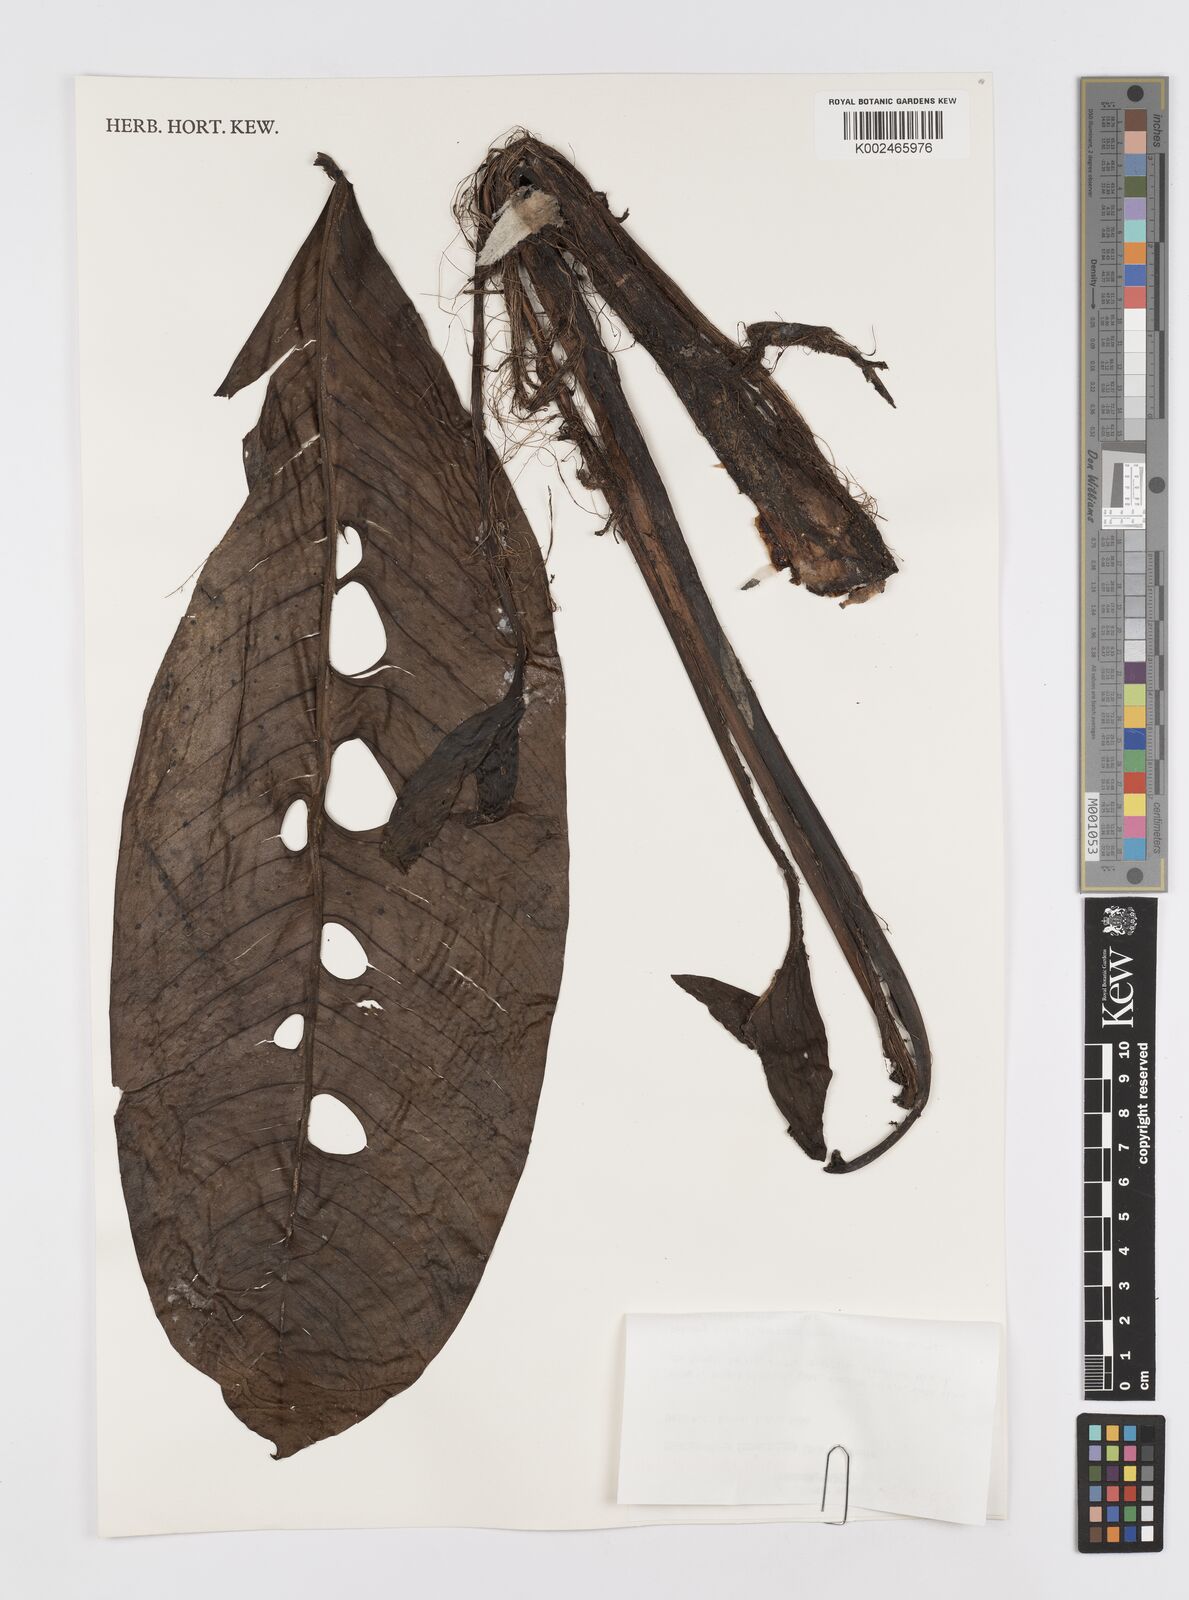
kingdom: Plantae
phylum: Tracheophyta
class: Liliopsida
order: Alismatales
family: Araceae
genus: Rhaphidophora
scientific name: Rhaphidophora foraminifera
